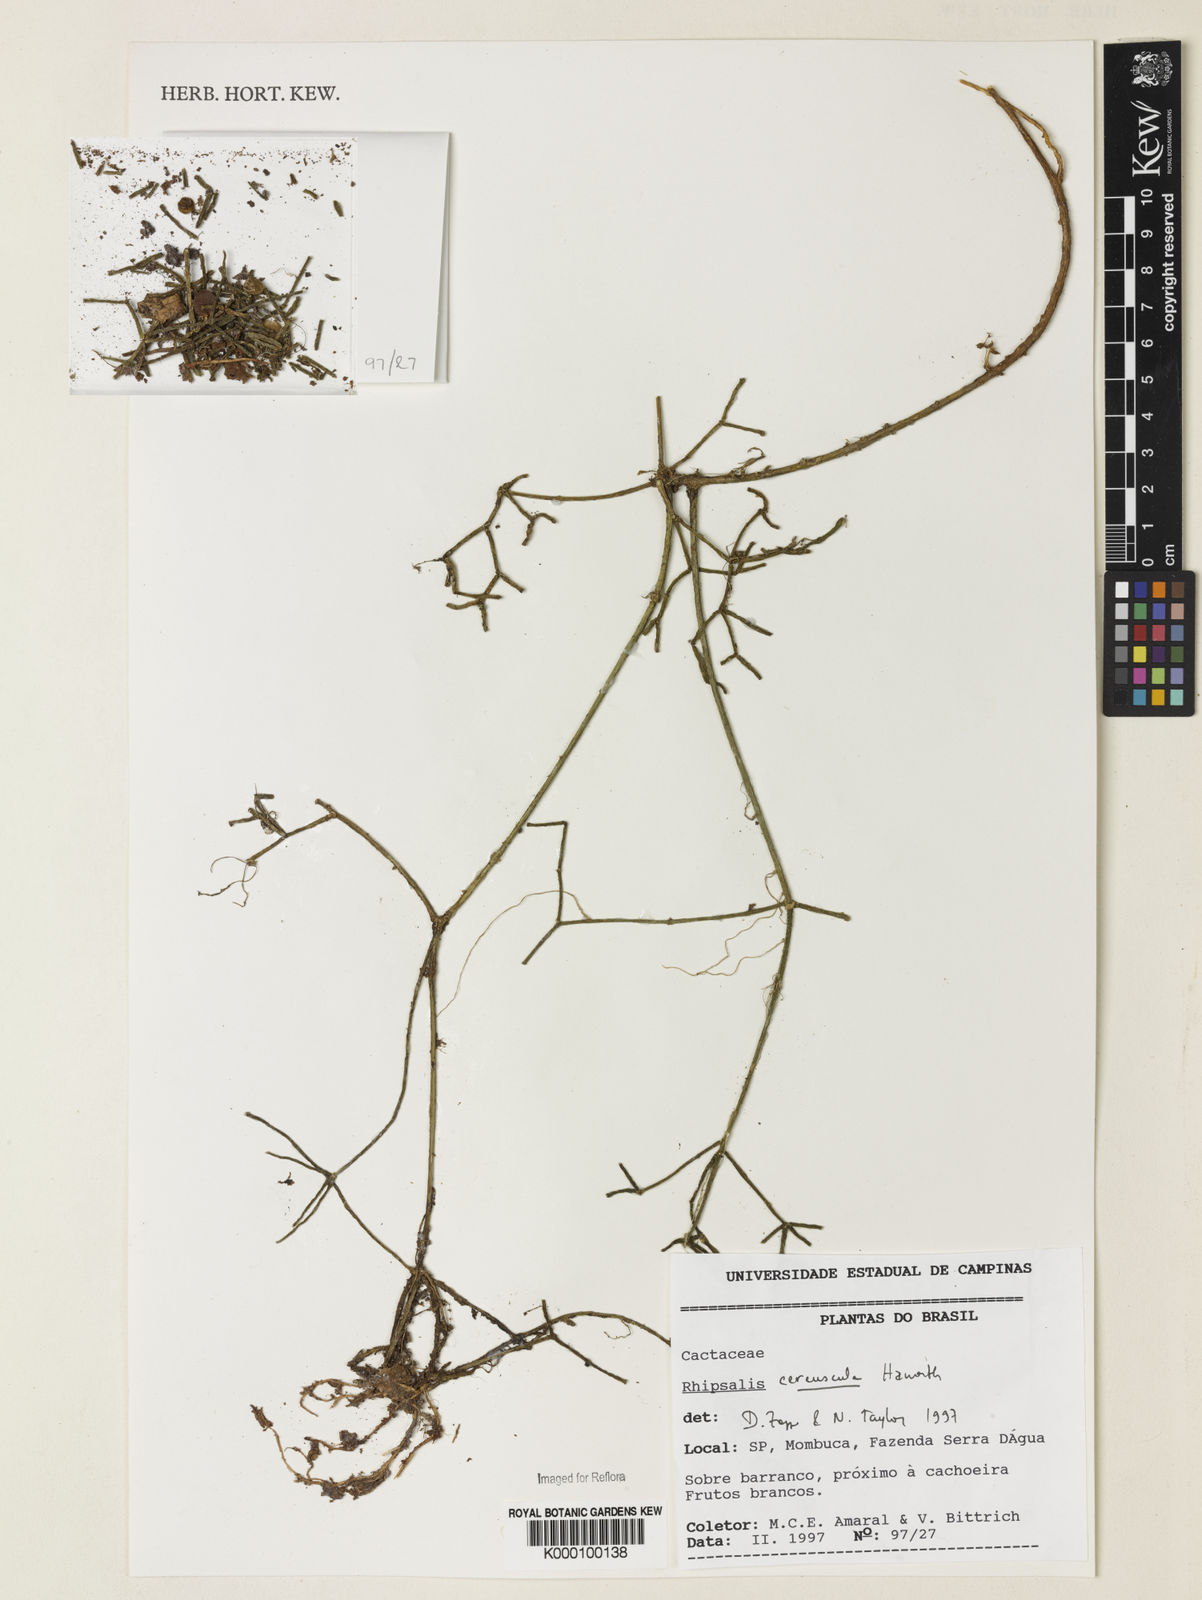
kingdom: Plantae
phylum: Tracheophyta
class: Magnoliopsida
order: Caryophyllales
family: Cactaceae
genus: Rhipsalis
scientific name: Rhipsalis cereuscula
